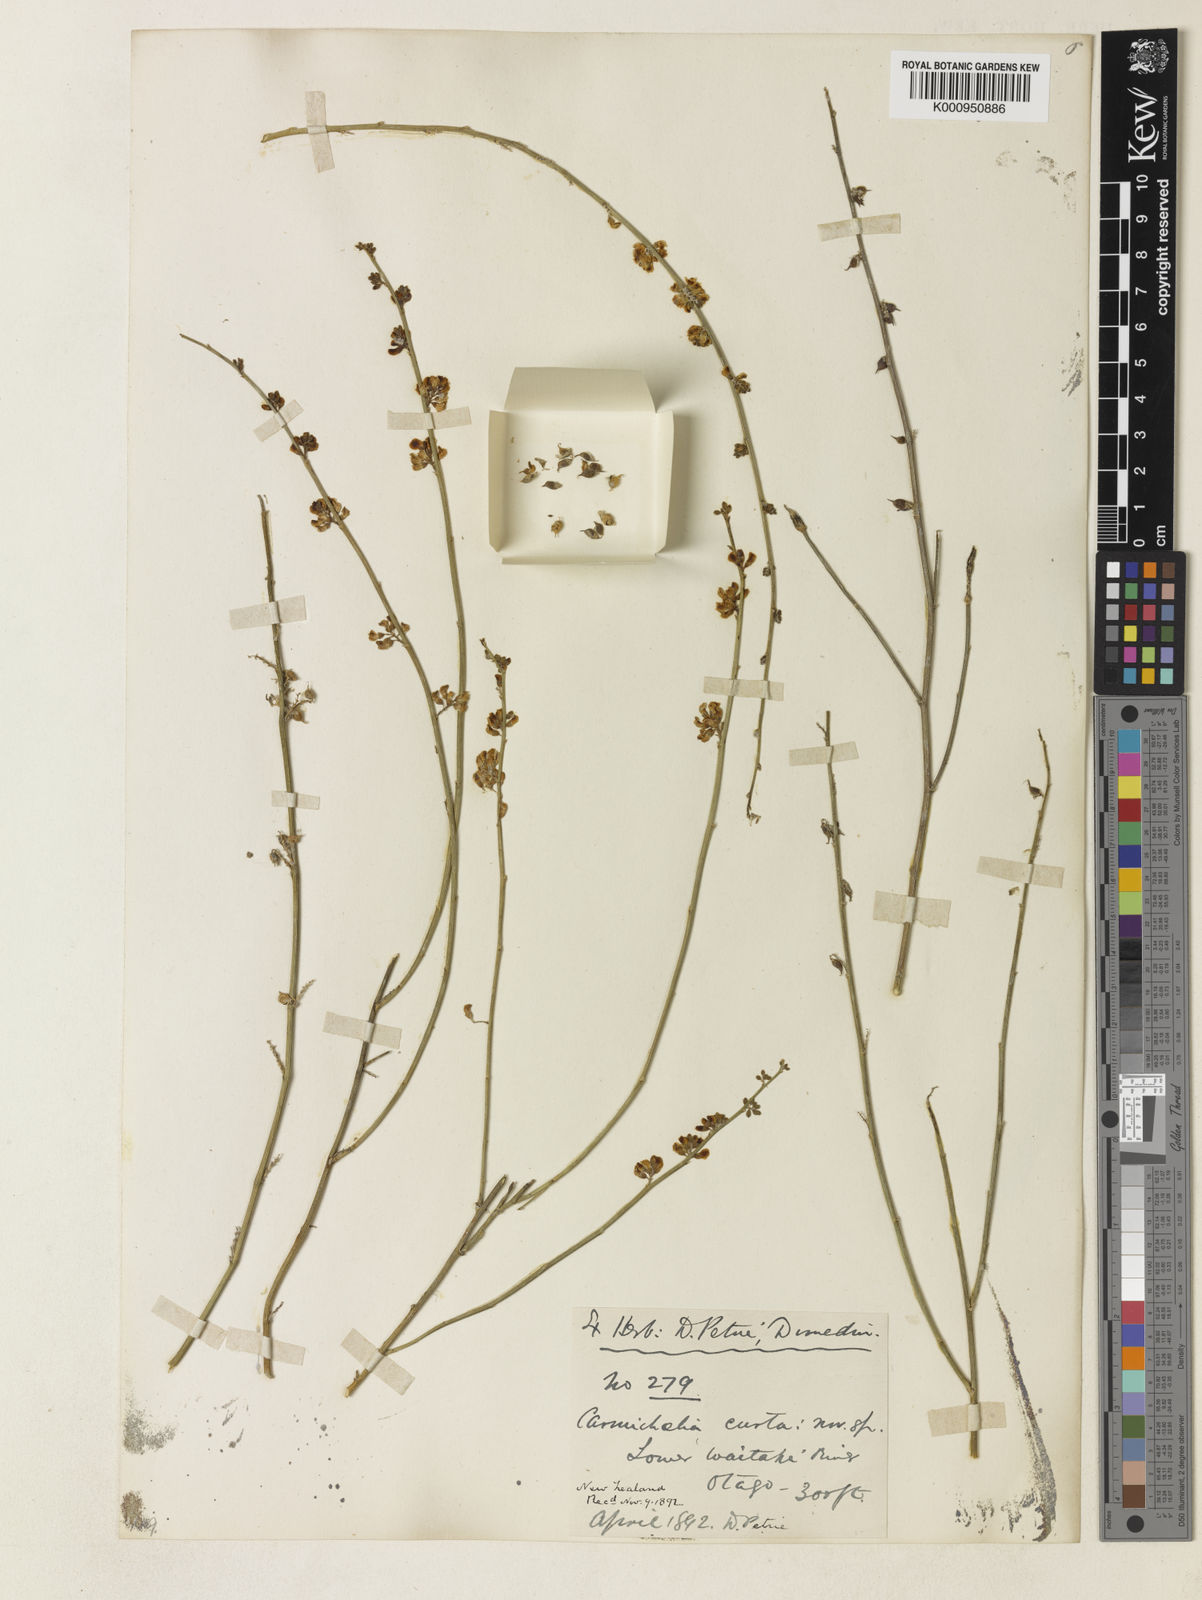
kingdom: Plantae
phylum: Tracheophyta
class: Magnoliopsida
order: Fabales
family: Fabaceae
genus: Carmichaelia
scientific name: Carmichaelia curta
